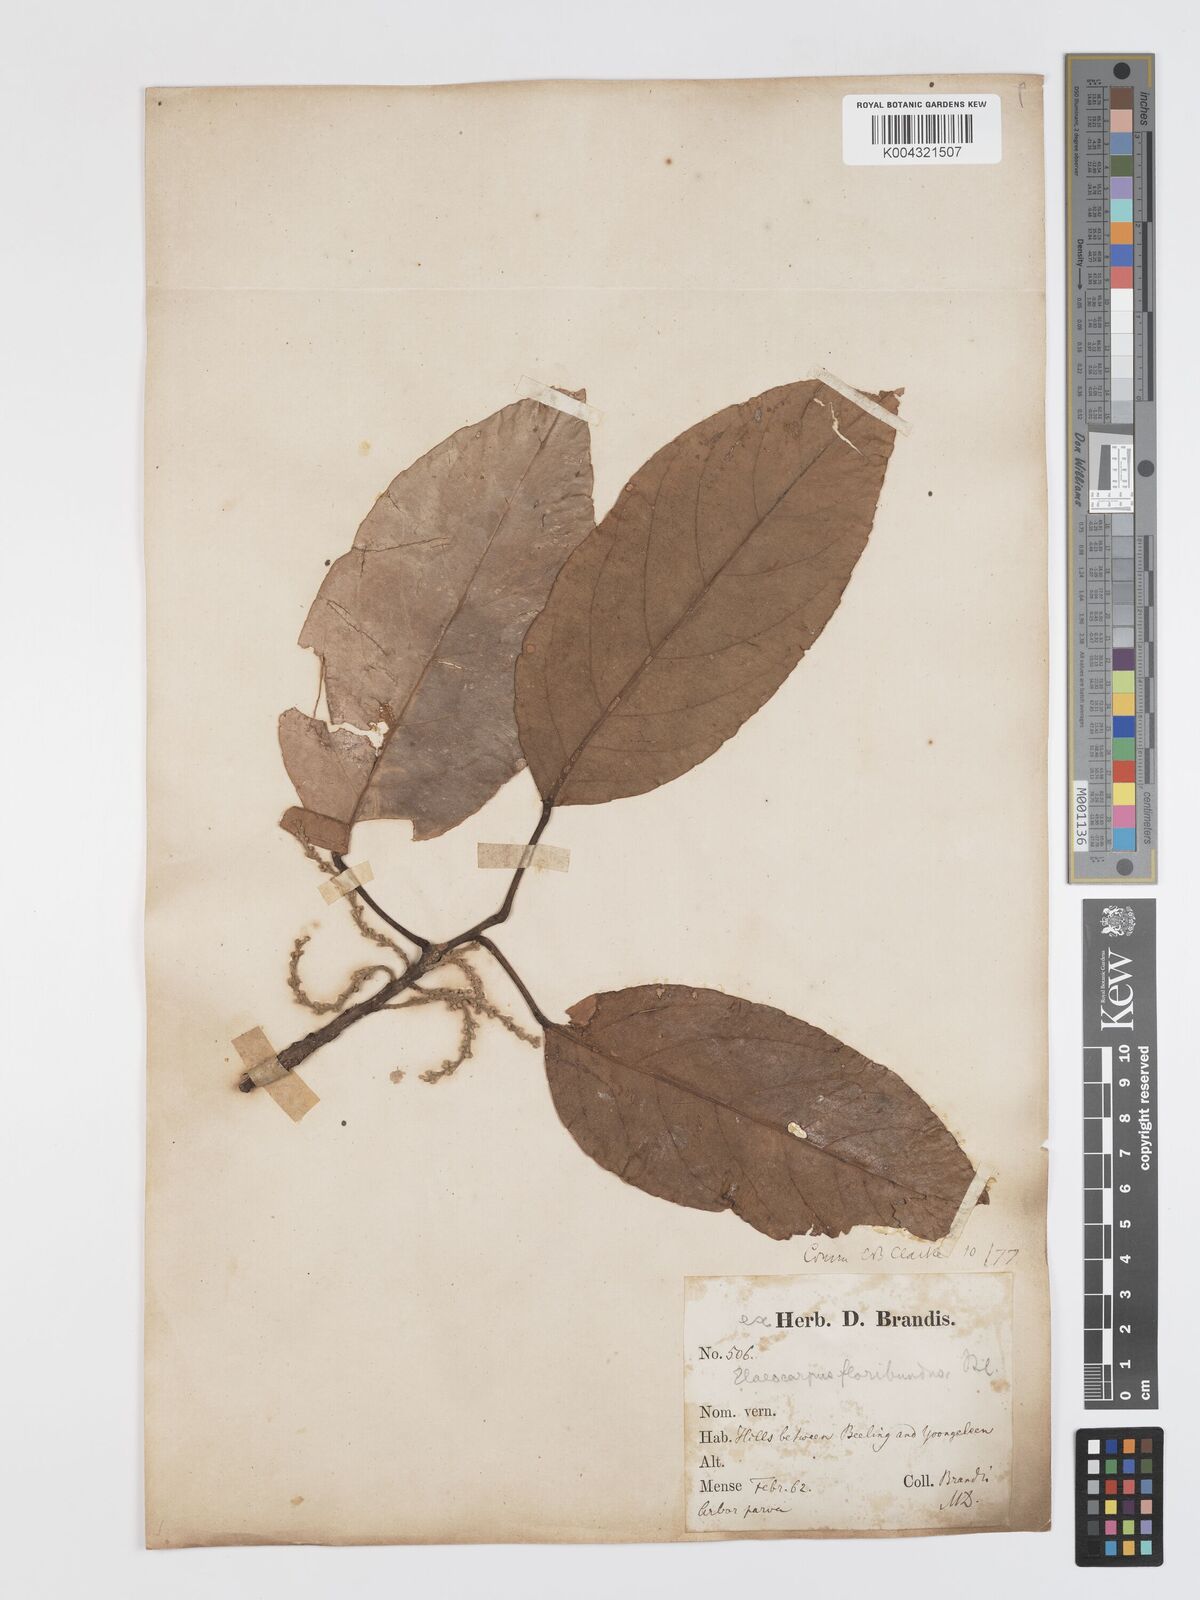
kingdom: Plantae
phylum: Tracheophyta
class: Magnoliopsida
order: Oxalidales
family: Elaeocarpaceae
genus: Elaeocarpus
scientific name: Elaeocarpus floribundus
